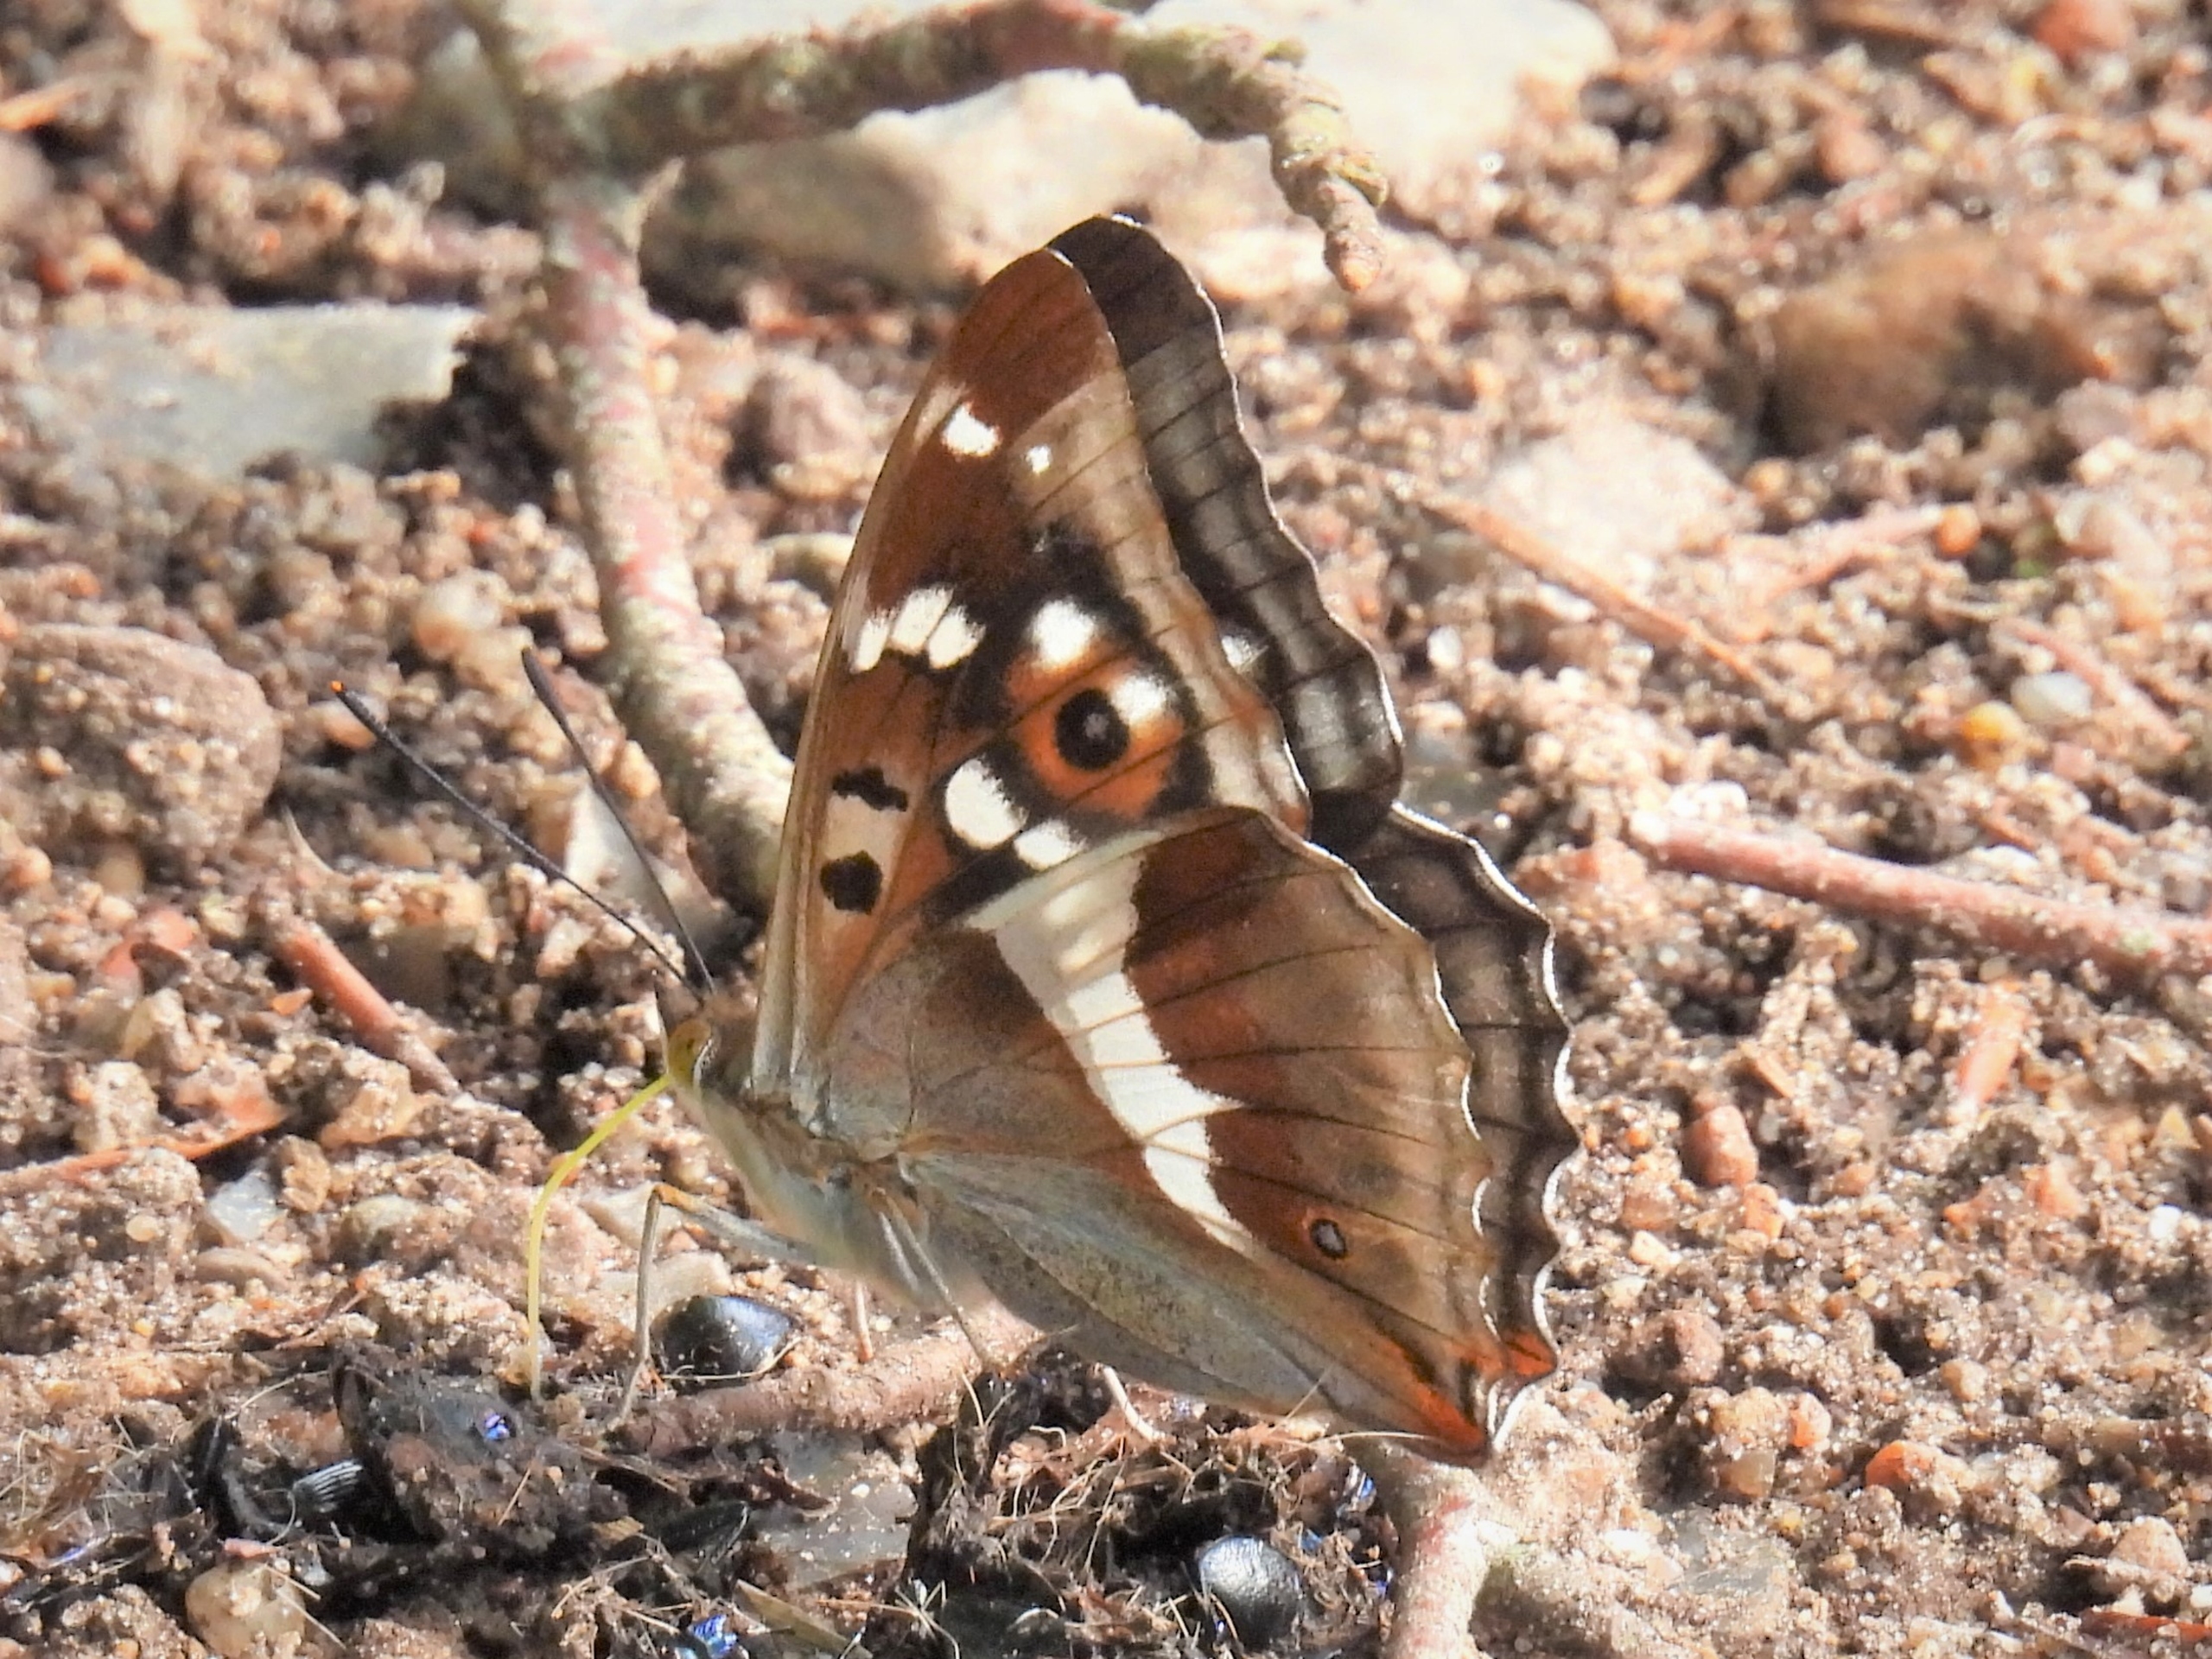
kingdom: Animalia
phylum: Arthropoda
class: Insecta
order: Lepidoptera
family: Nymphalidae
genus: Apatura
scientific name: Apatura iris
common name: Iris
